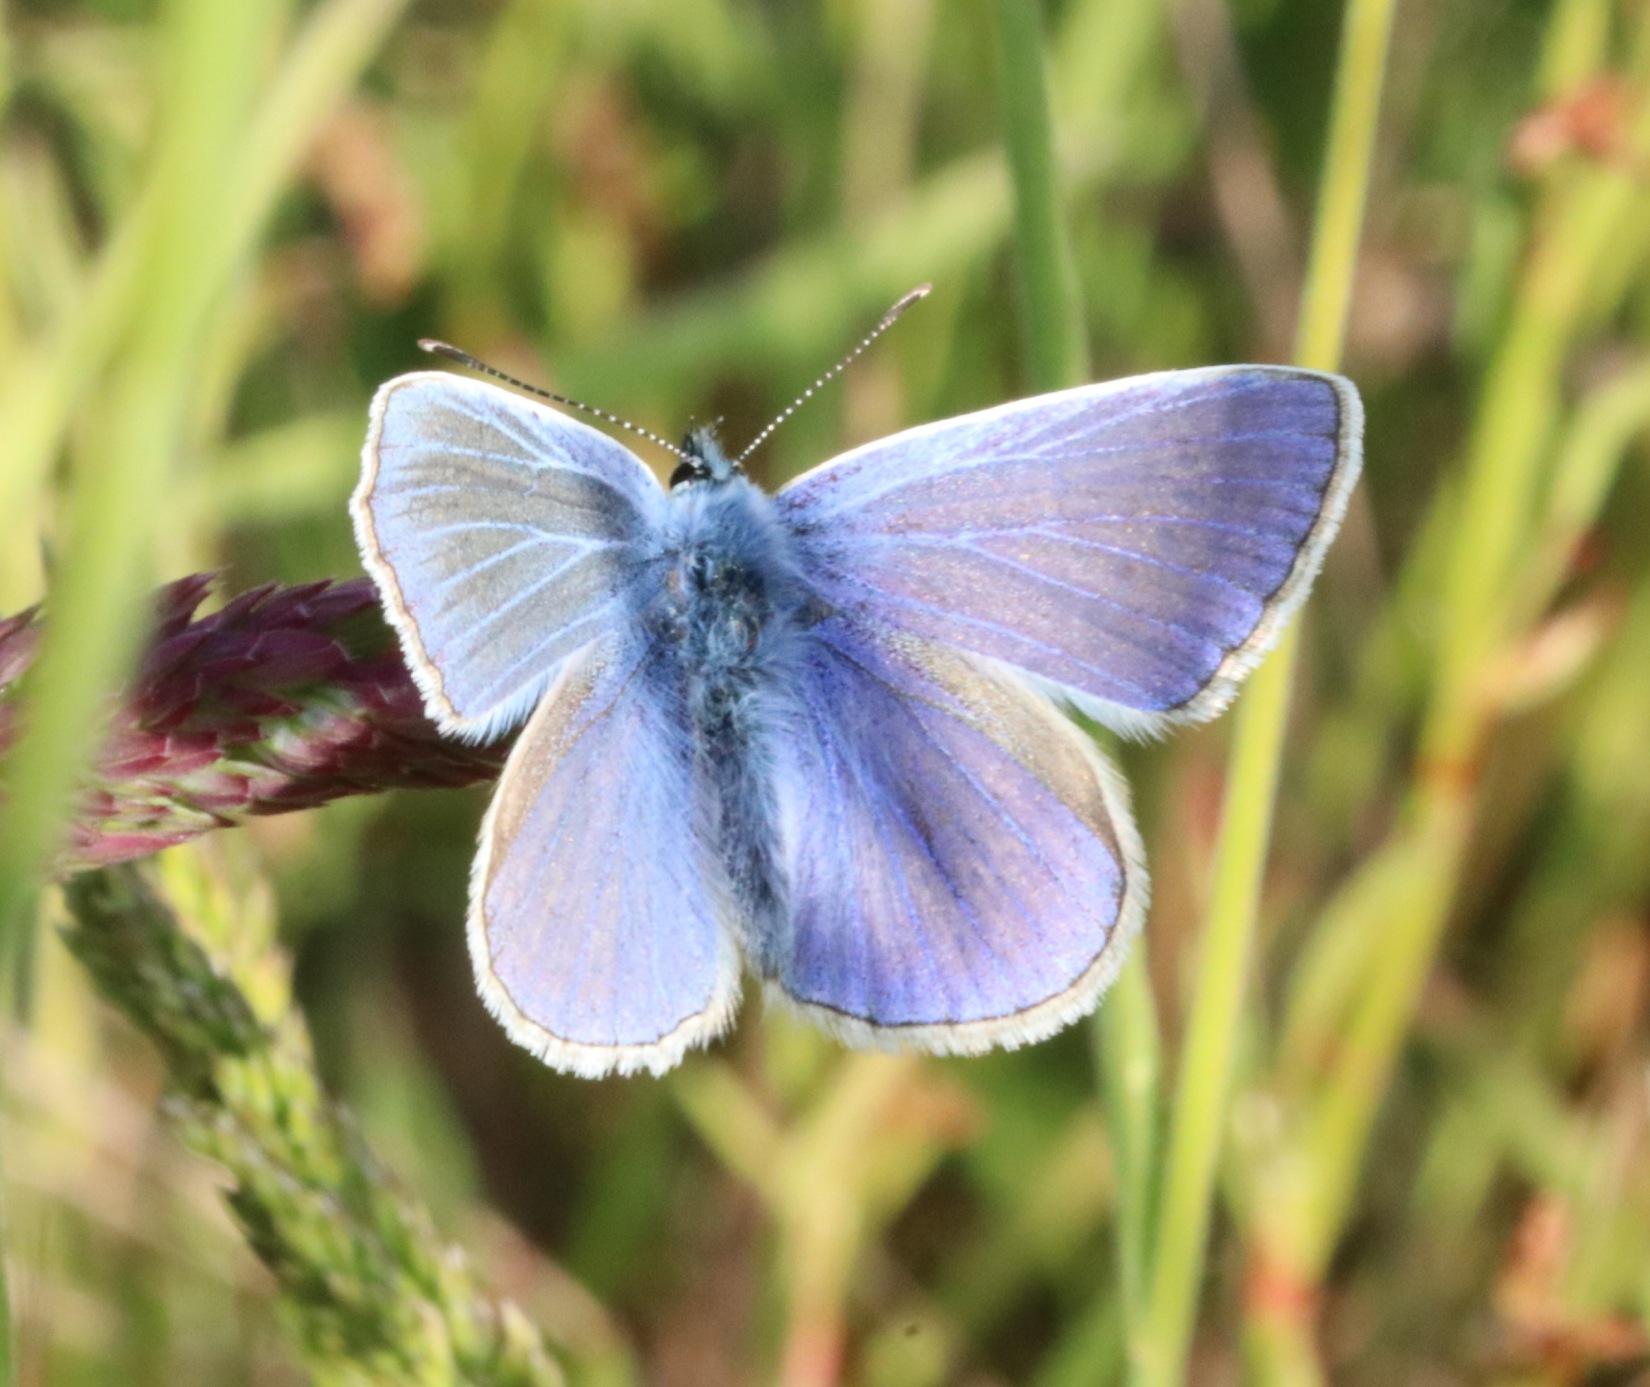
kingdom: Animalia
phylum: Arthropoda
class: Insecta
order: Lepidoptera
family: Lycaenidae
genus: Polyommatus
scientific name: Polyommatus icarus
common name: Almindelig blåfugl
